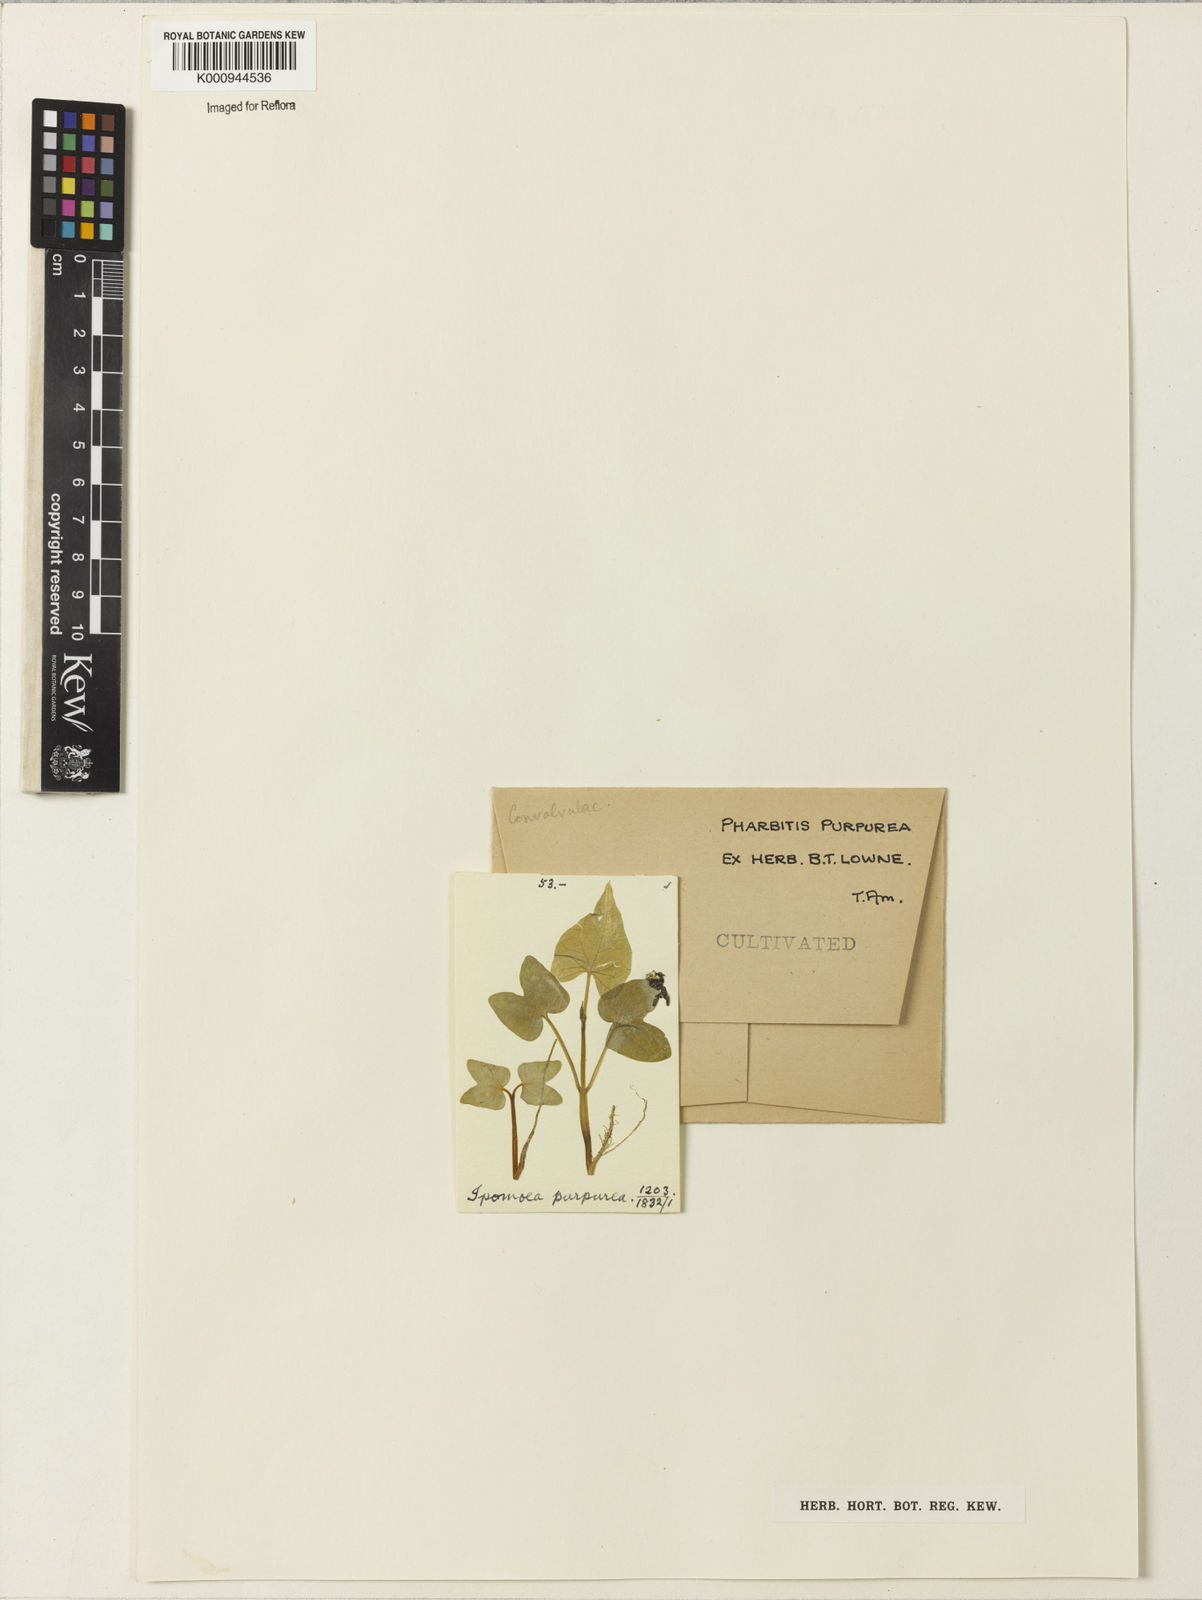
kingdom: Plantae
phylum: Tracheophyta
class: Magnoliopsida
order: Solanales
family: Convolvulaceae
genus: Ipomoea
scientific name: Ipomoea purpurea
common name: Common morning-glory
